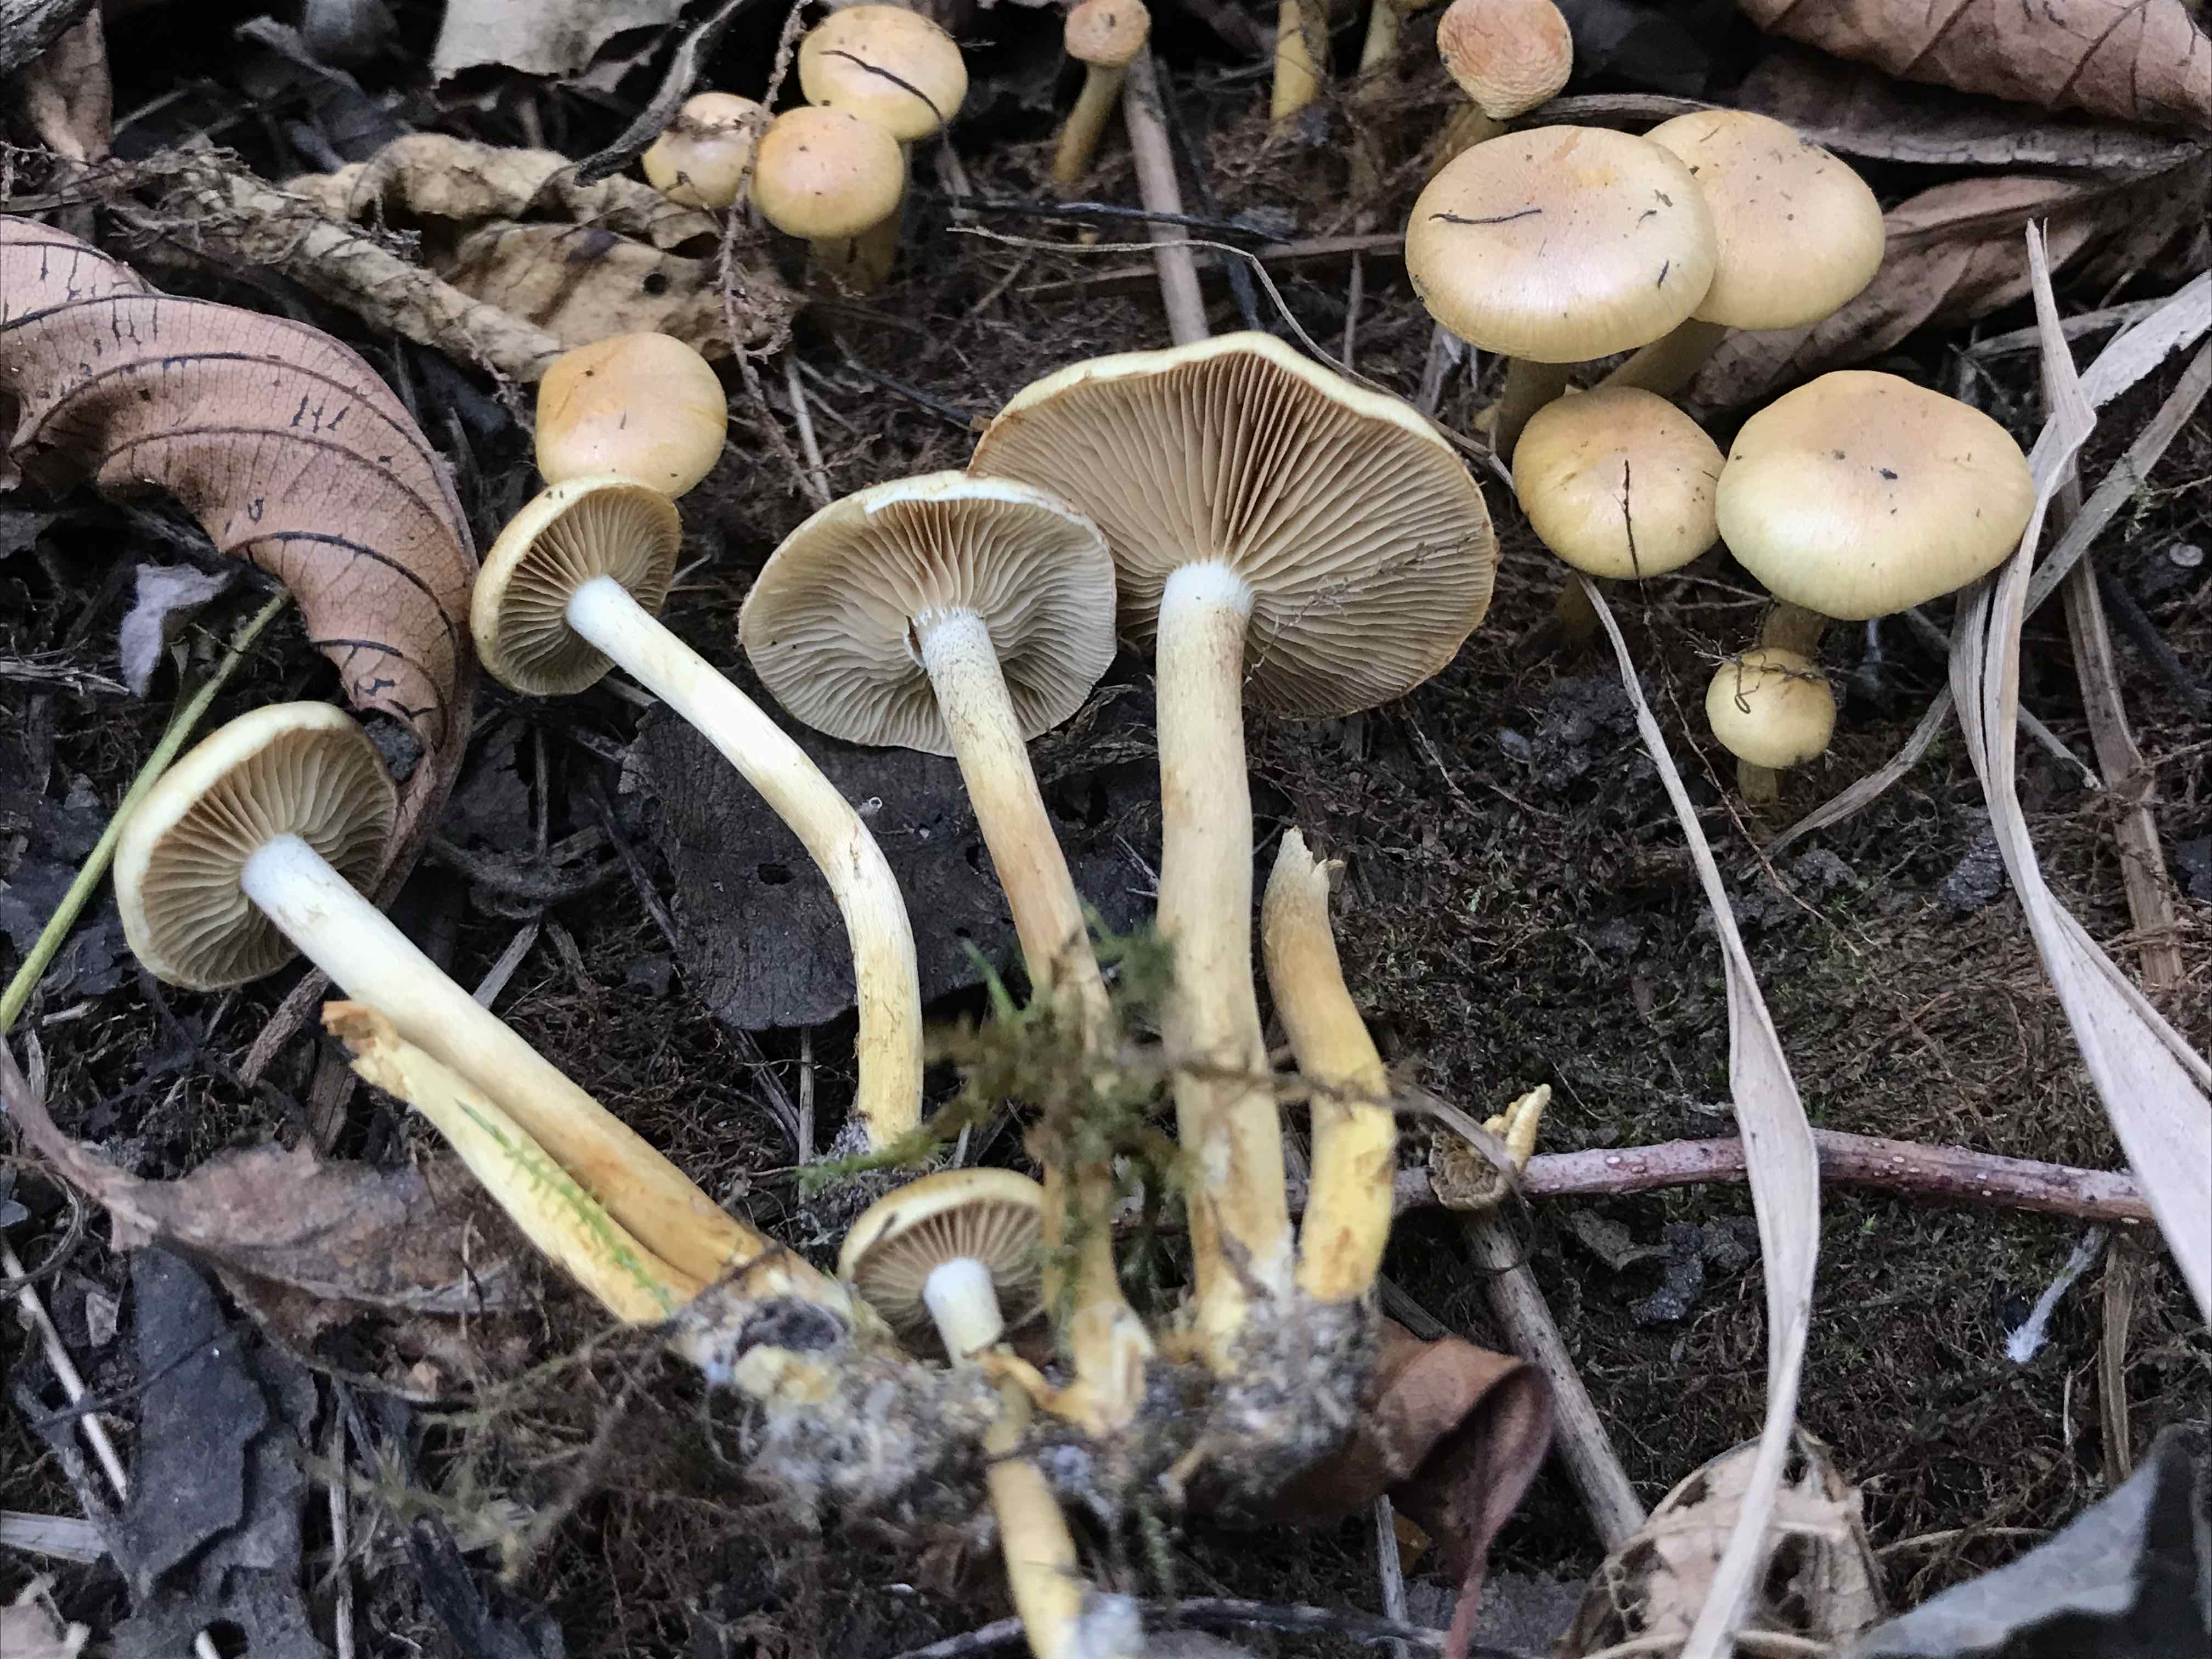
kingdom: Fungi
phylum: Basidiomycota
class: Agaricomycetes
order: Agaricales
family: Strophariaceae
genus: Pholiota
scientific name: Pholiota conissans
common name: pile-skælhat
